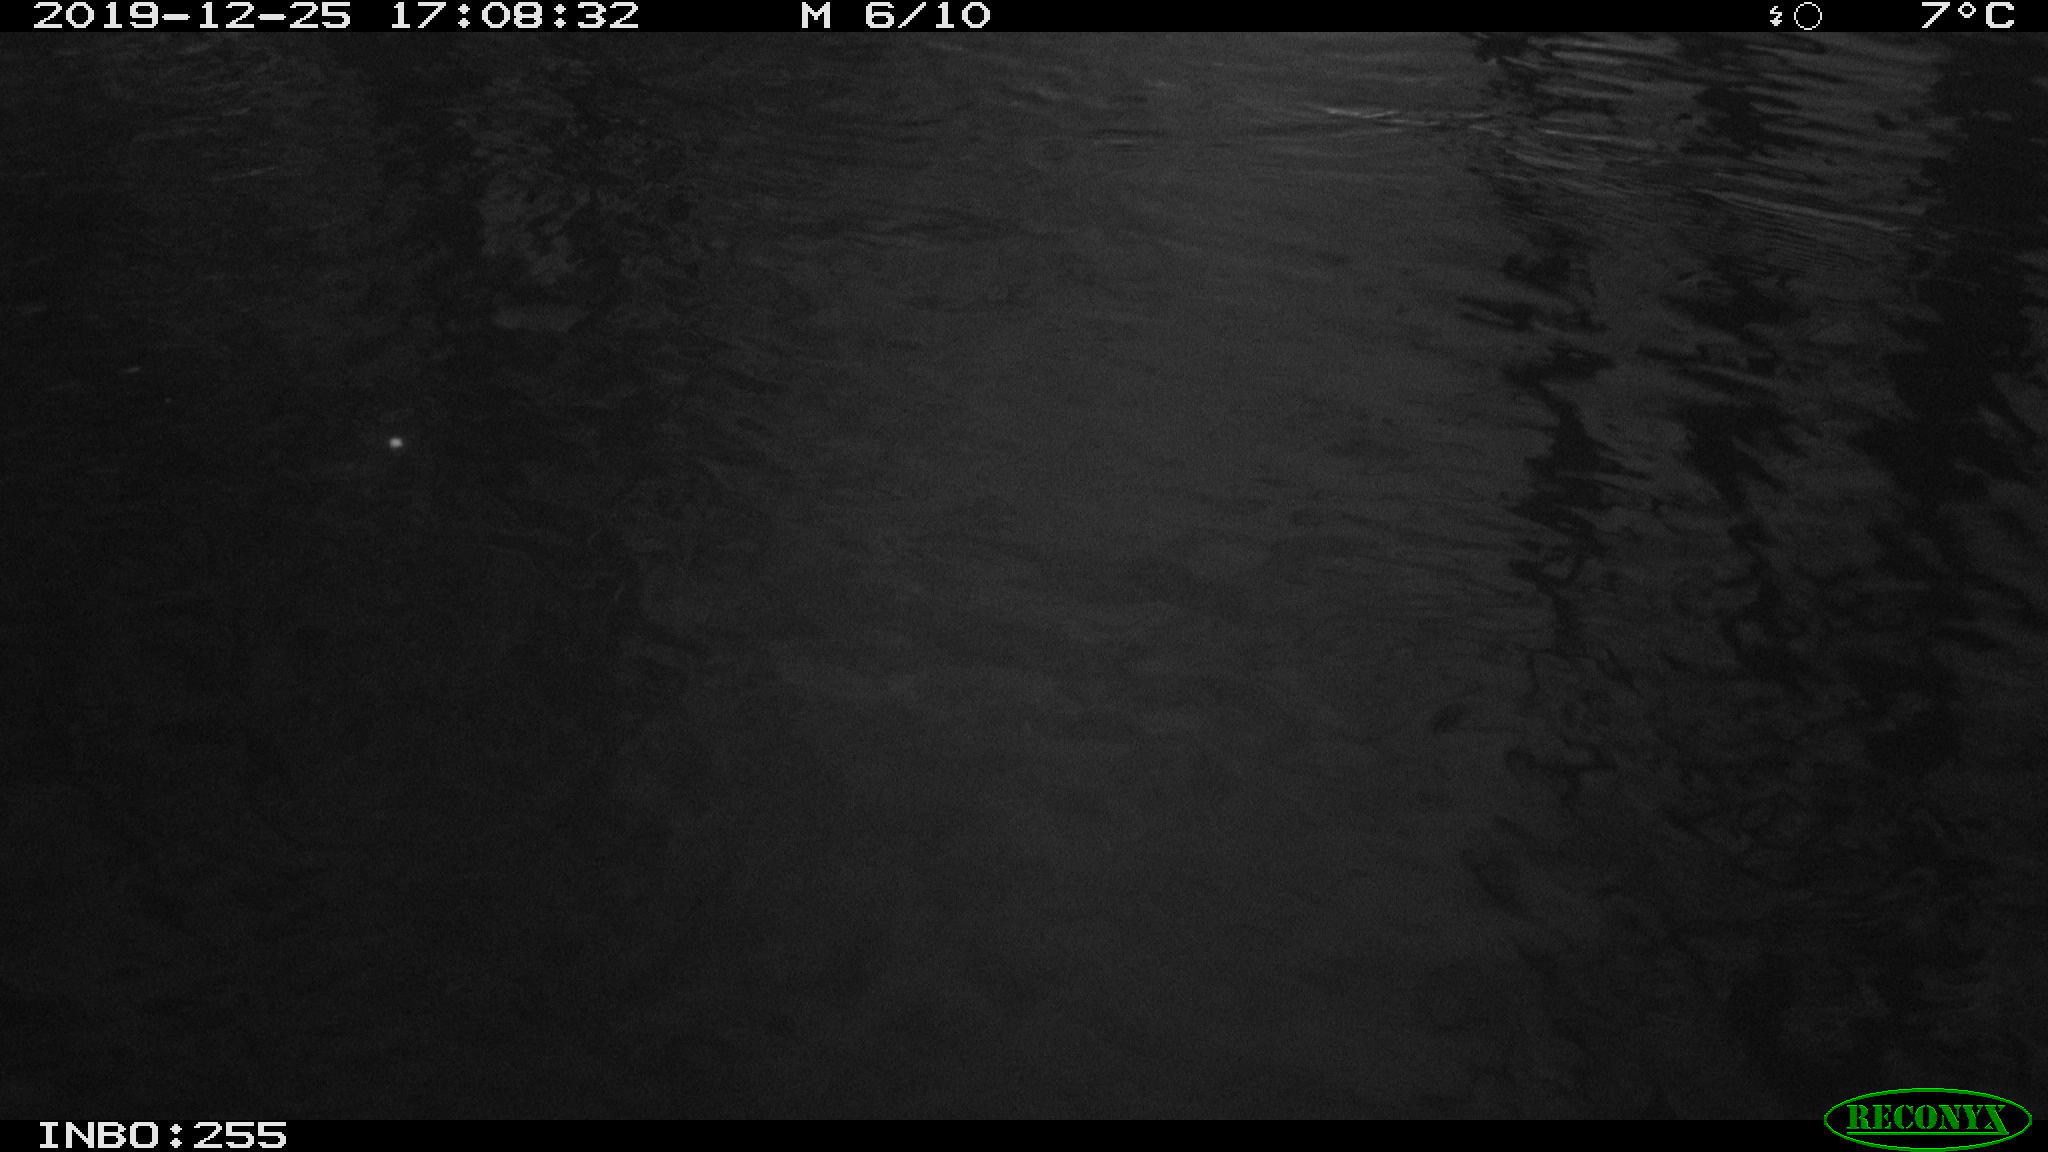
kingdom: Animalia
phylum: Chordata
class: Aves
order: Anseriformes
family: Anatidae
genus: Anas
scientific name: Anas platyrhynchos
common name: Mallard
